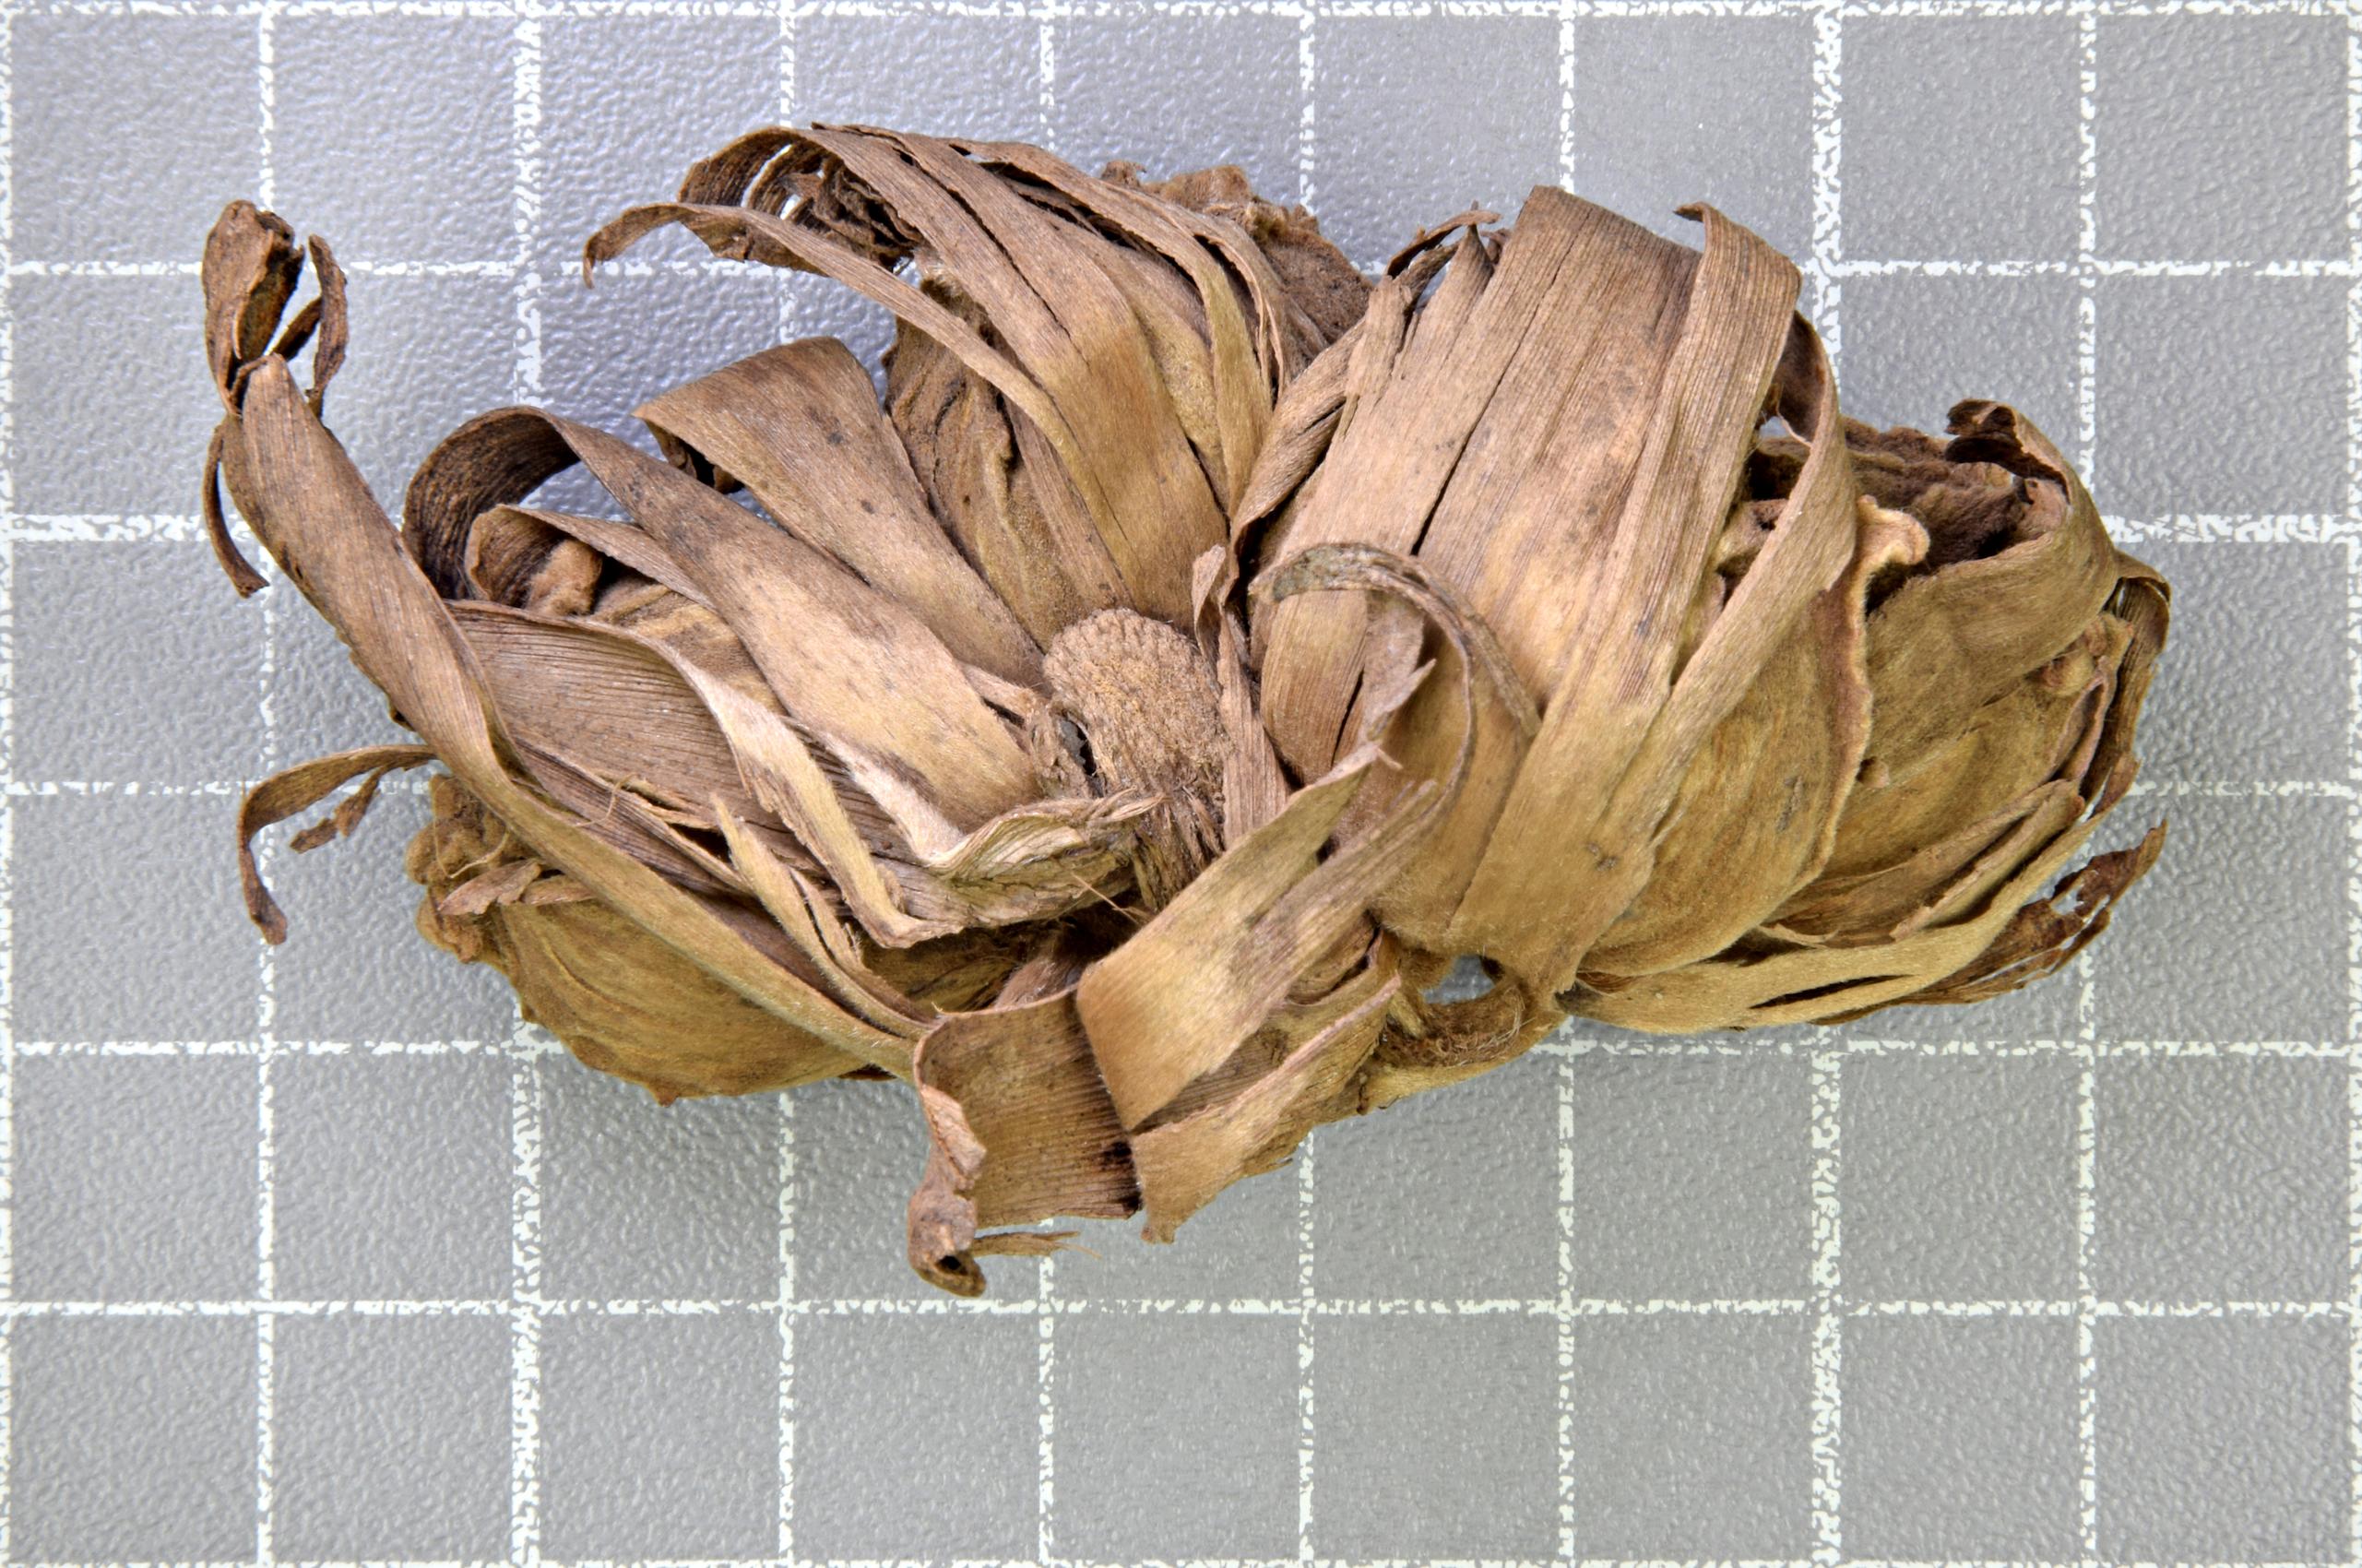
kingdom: Plantae
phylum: Tracheophyta
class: Liliopsida
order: Zingiberales
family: Zingiberaceae
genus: Amomum
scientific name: Amomum
